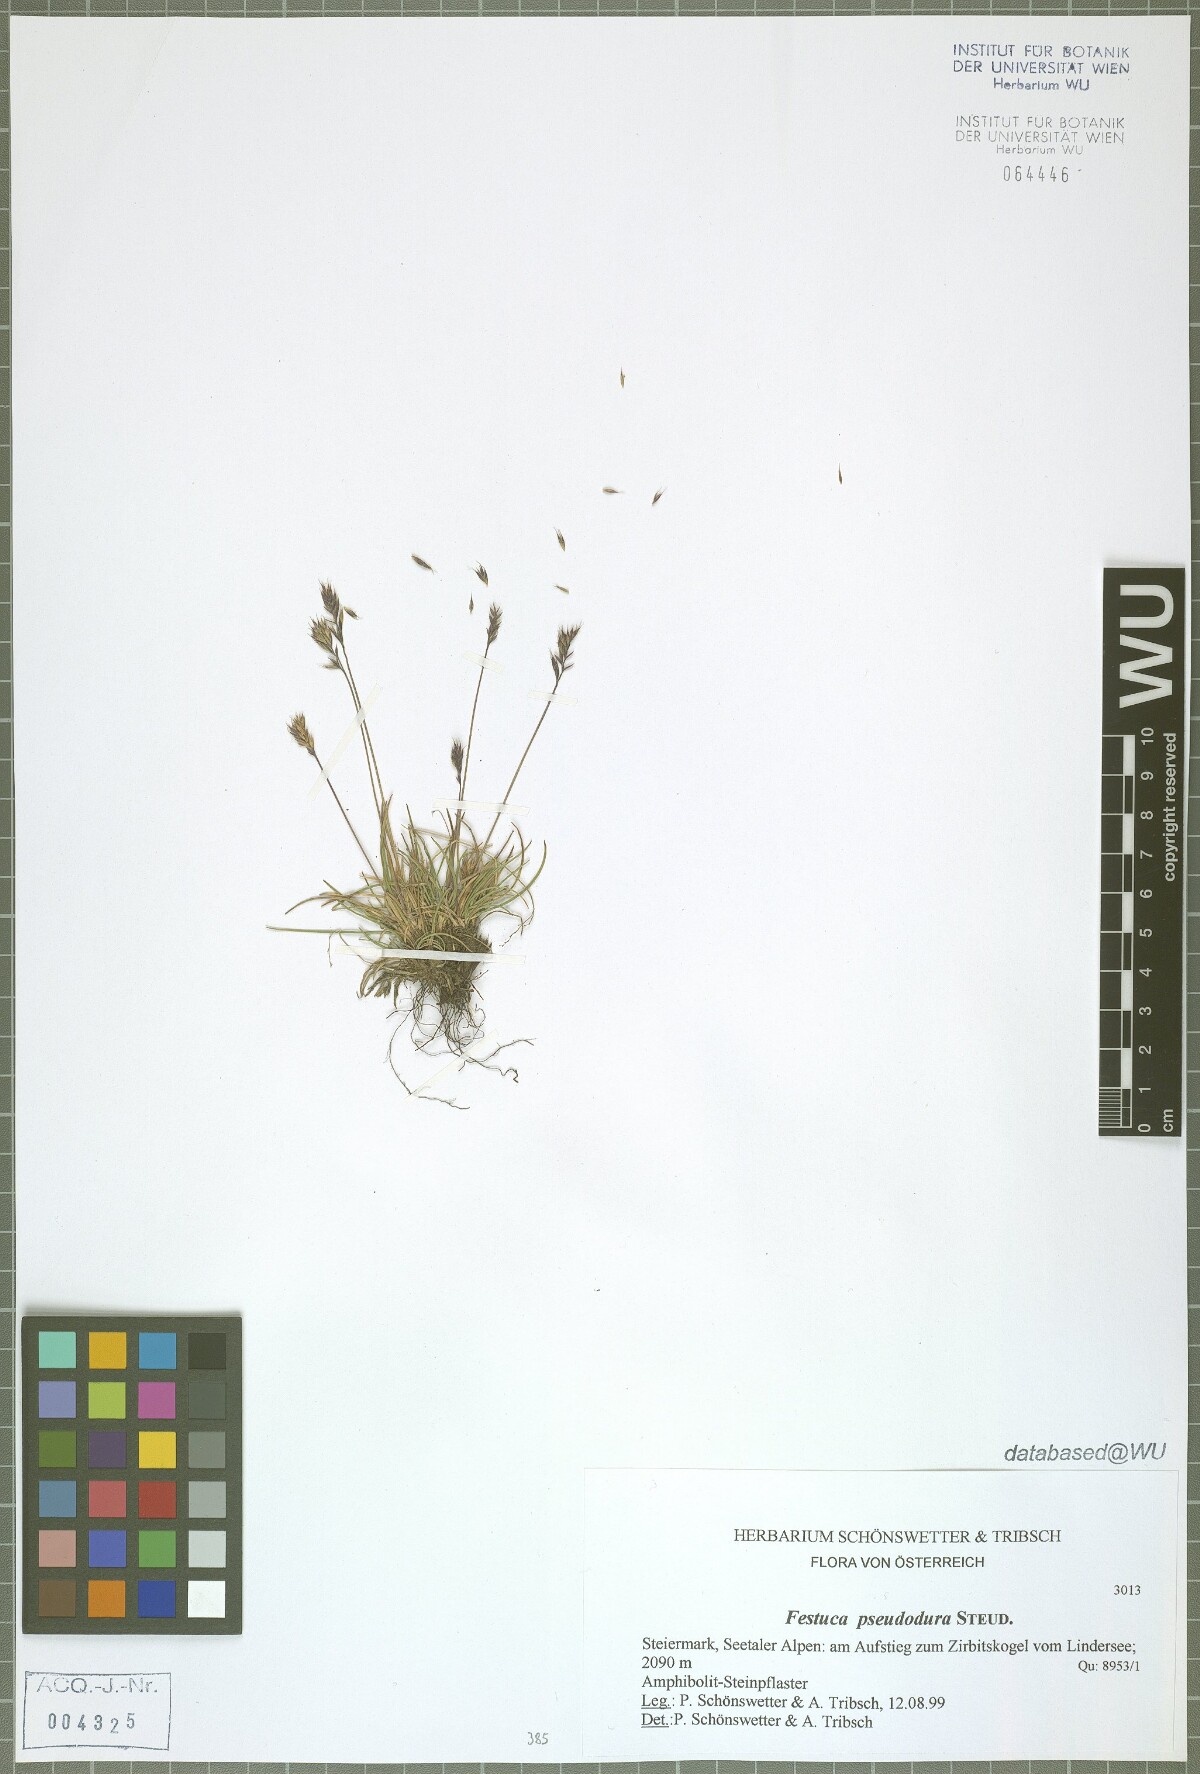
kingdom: Plantae
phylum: Tracheophyta
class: Liliopsida
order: Poales
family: Poaceae
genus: Festuca
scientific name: Festuca pseudodura
